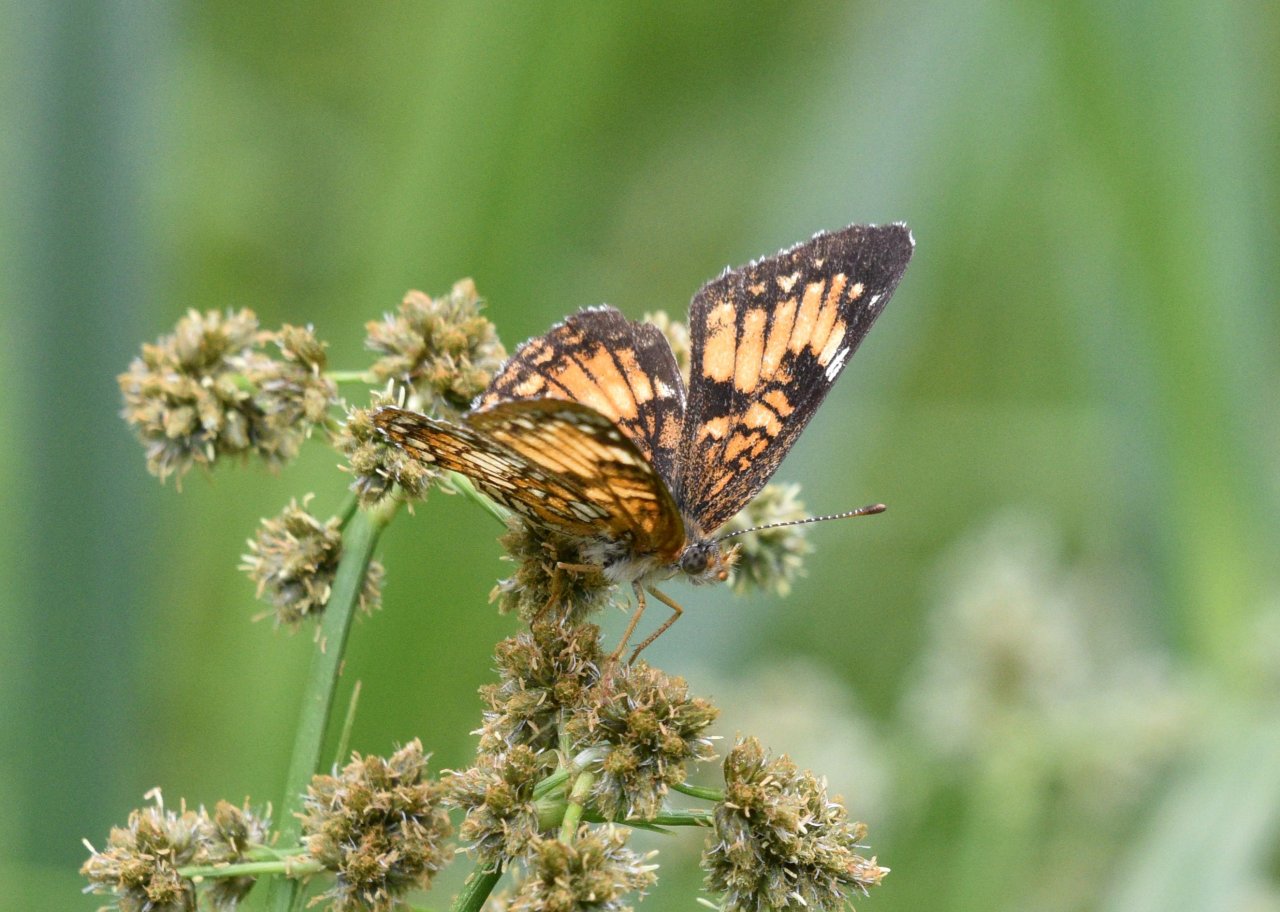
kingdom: Animalia
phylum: Arthropoda
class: Insecta
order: Lepidoptera
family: Nymphalidae
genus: Chlosyne
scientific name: Chlosyne harrisii
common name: Harris's Checkerspot
